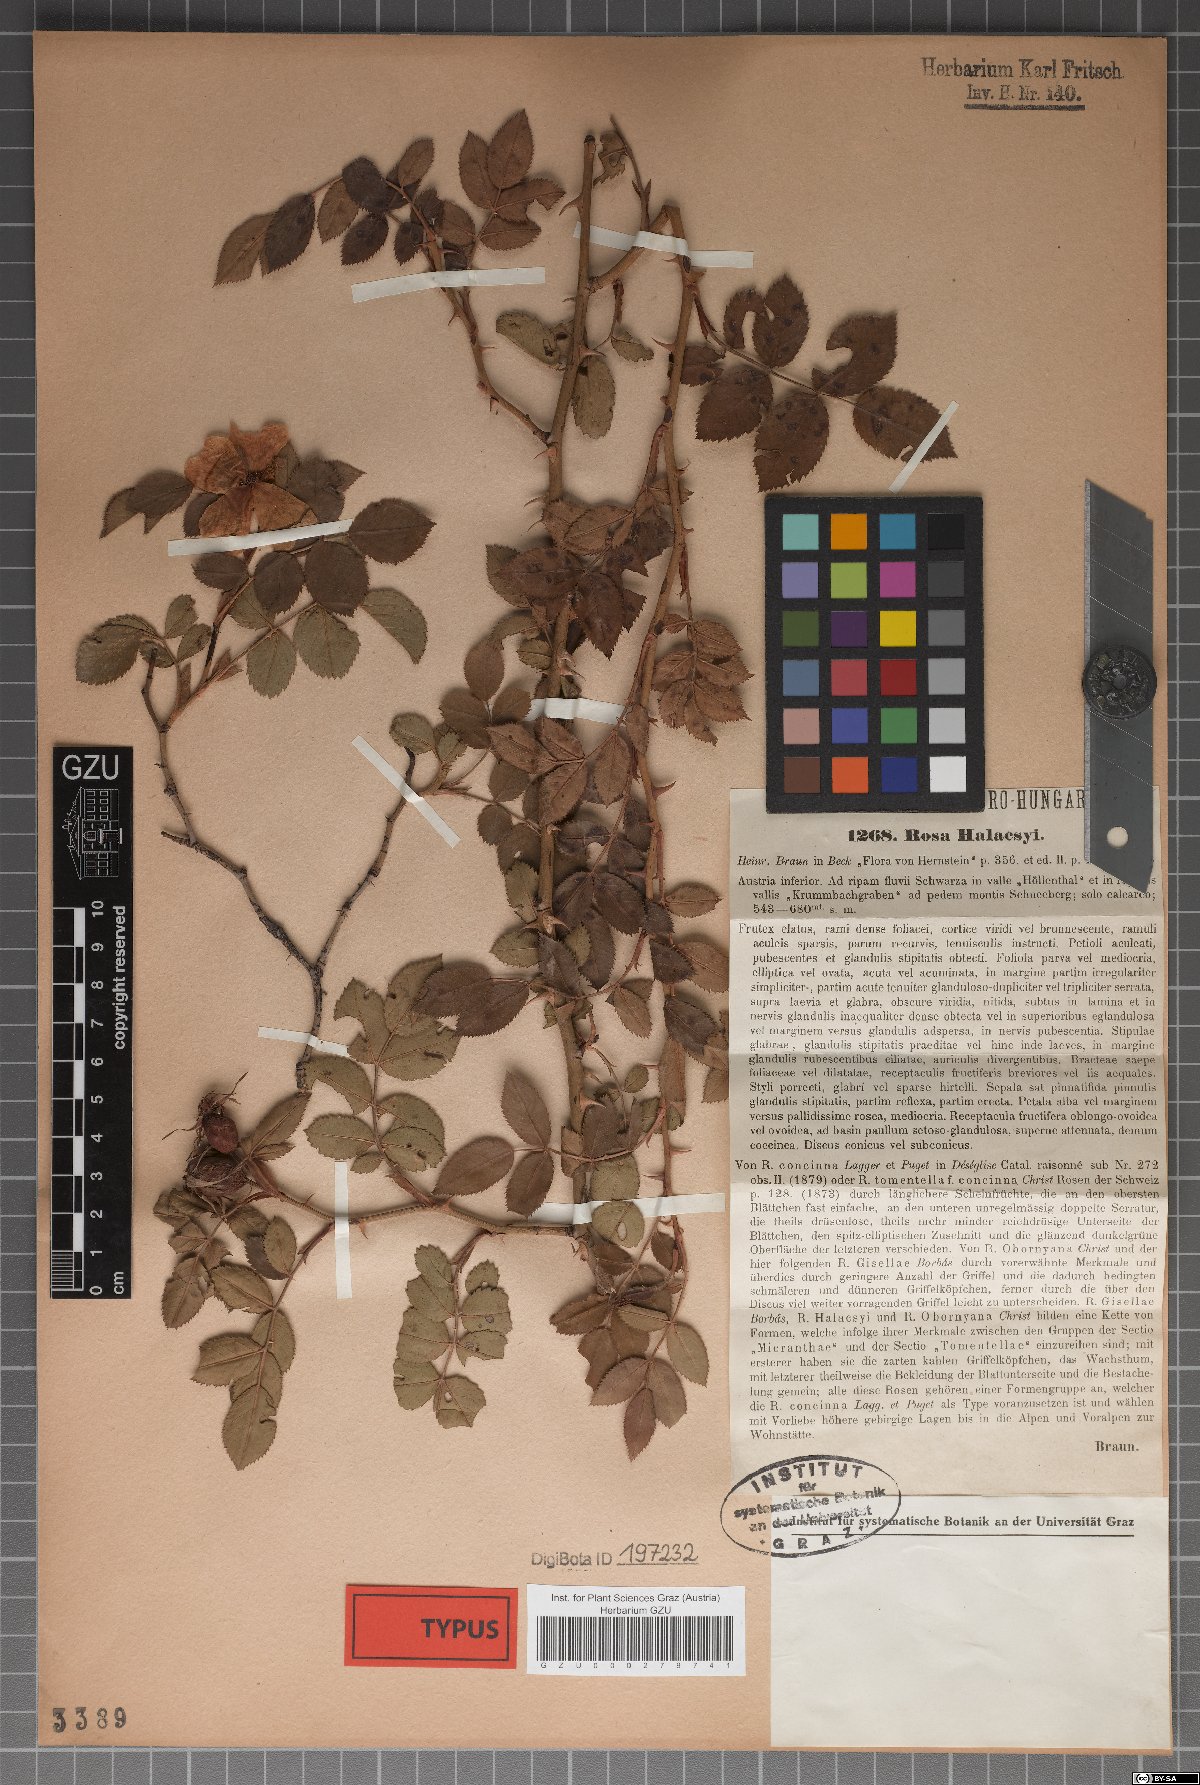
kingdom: Plantae
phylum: Tracheophyta
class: Magnoliopsida
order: Rosales
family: Rosaceae
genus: Rosa
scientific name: Rosa balsamica
